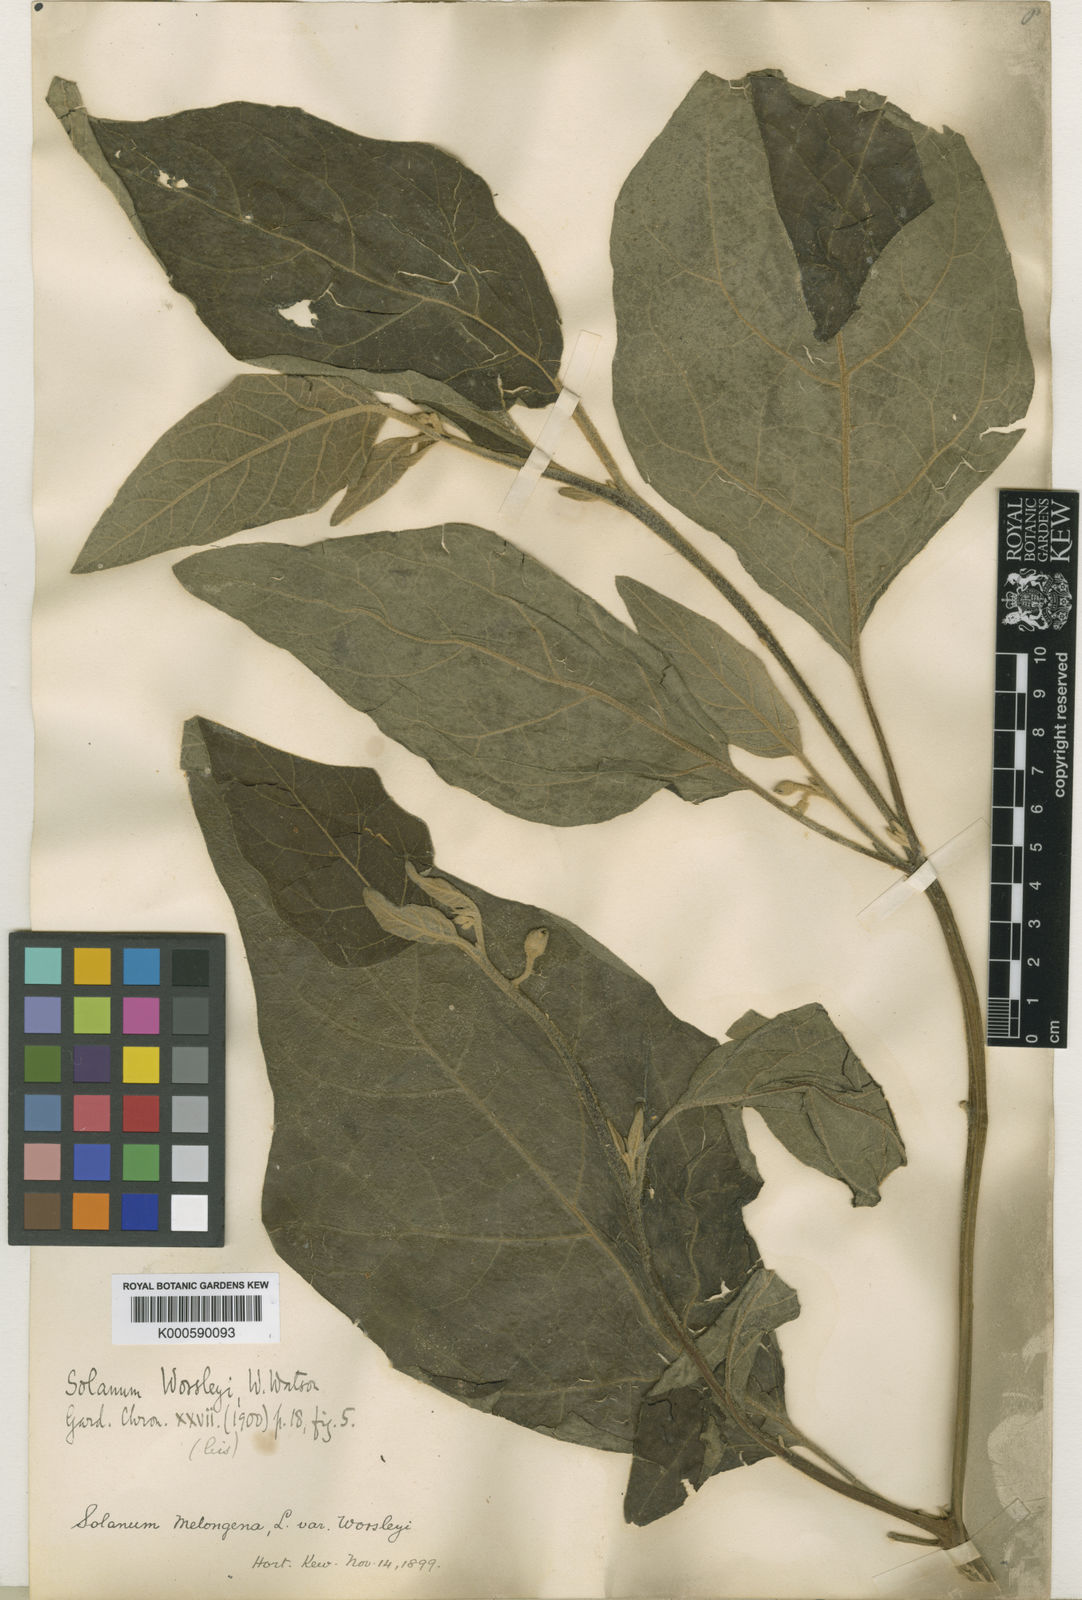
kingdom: Plantae
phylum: Tracheophyta
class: Magnoliopsida
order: Solanales
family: Solanaceae
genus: Solanum
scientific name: Solanum aethiopicum
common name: Gilo
